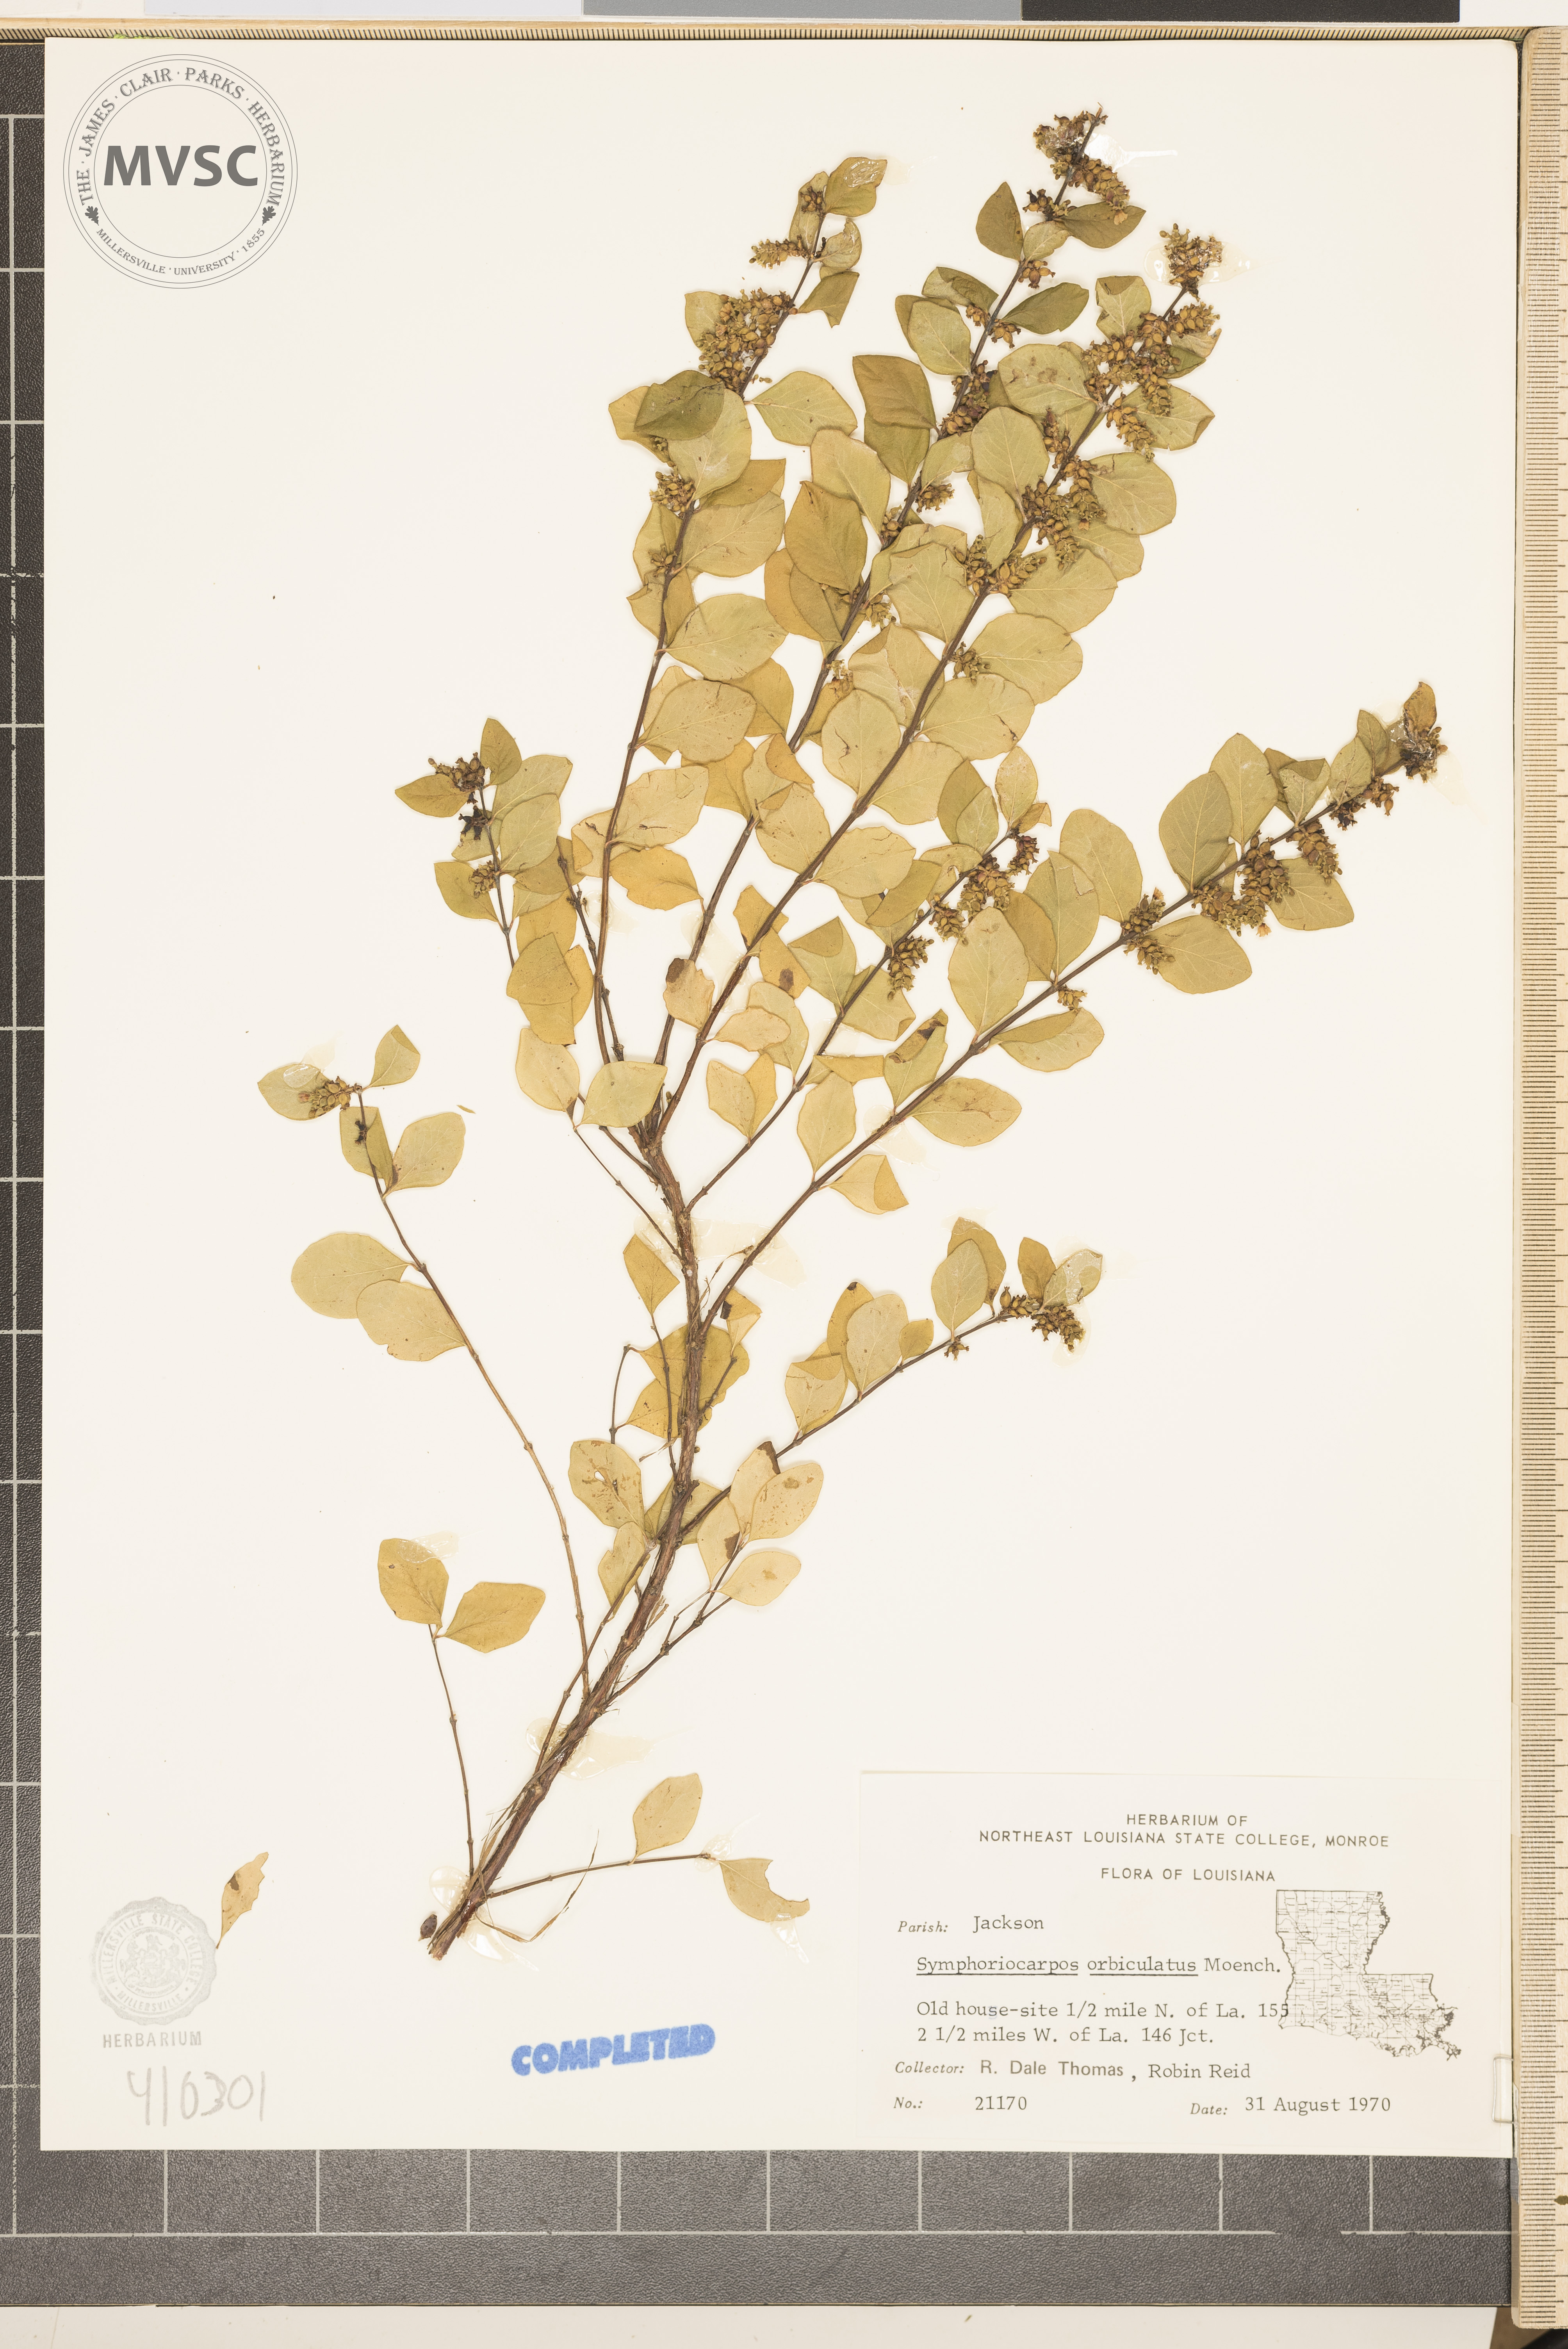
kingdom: Plantae
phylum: Tracheophyta
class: Magnoliopsida
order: Dipsacales
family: Caprifoliaceae
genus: Symphoricarpos
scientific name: Symphoricarpos orbiculatus
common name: Coralberry
